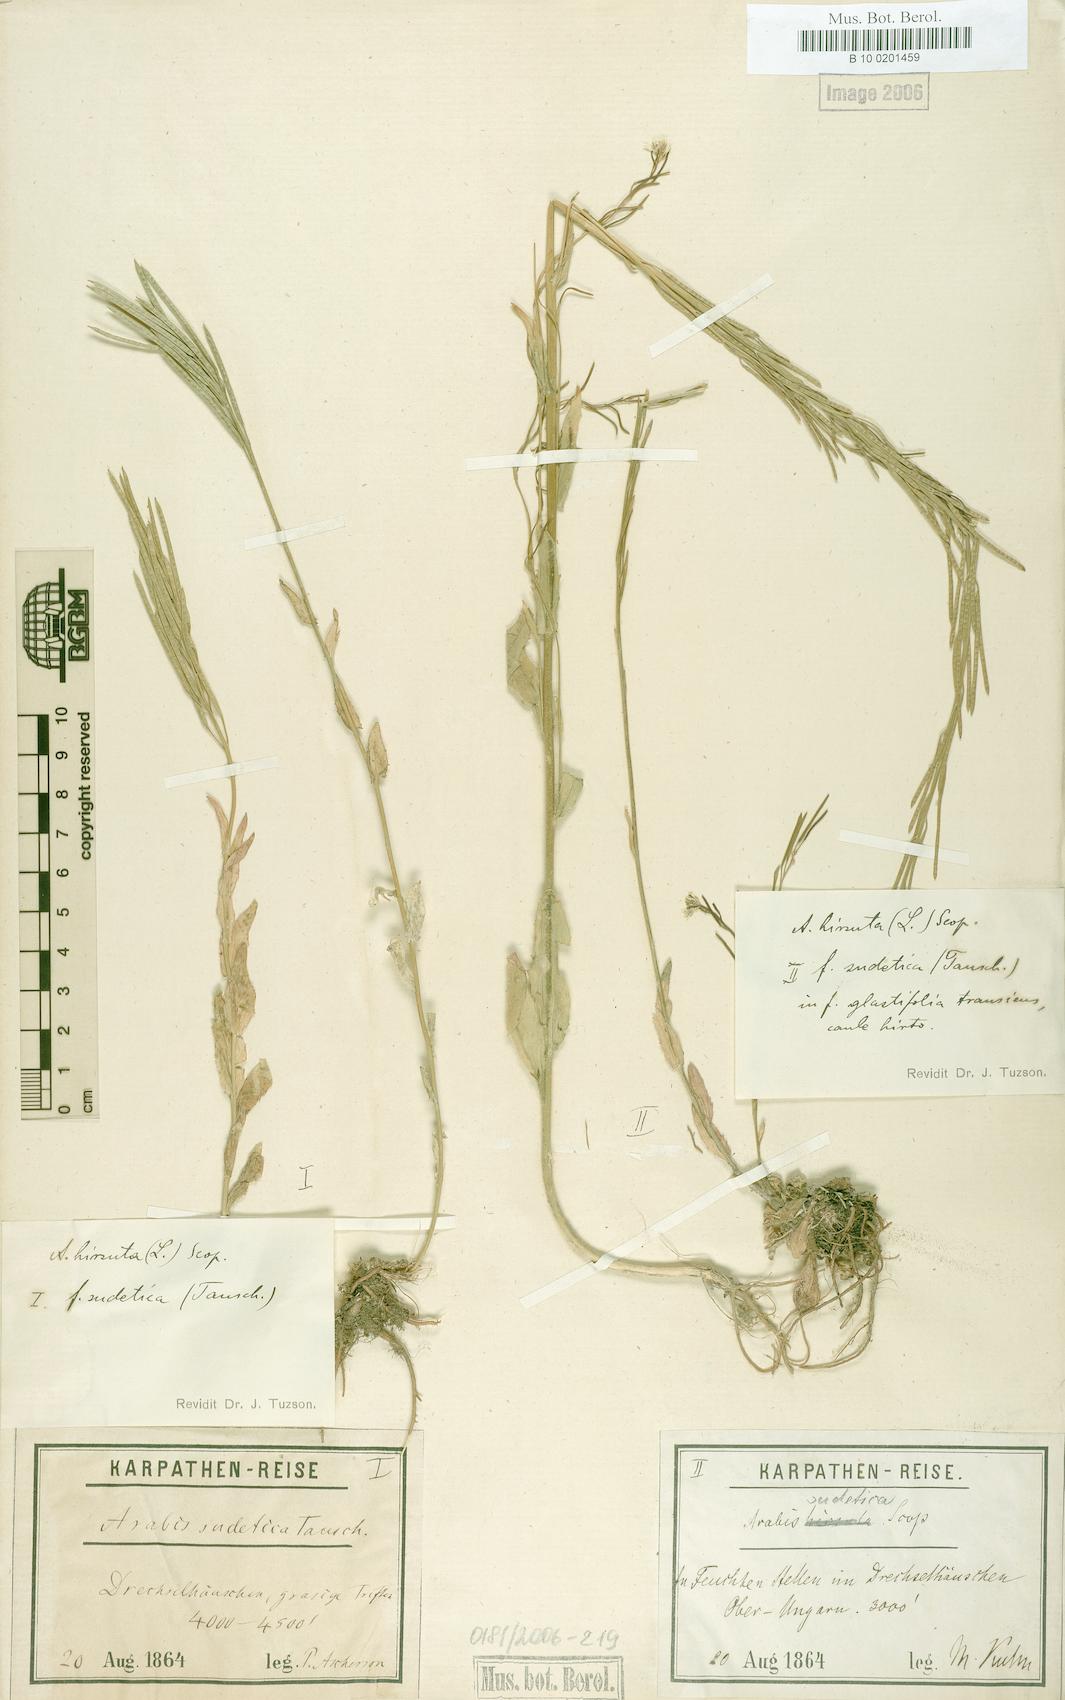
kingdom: Plantae
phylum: Tracheophyta
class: Magnoliopsida
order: Brassicales
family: Brassicaceae
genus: Arabis
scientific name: Arabis sudetica
